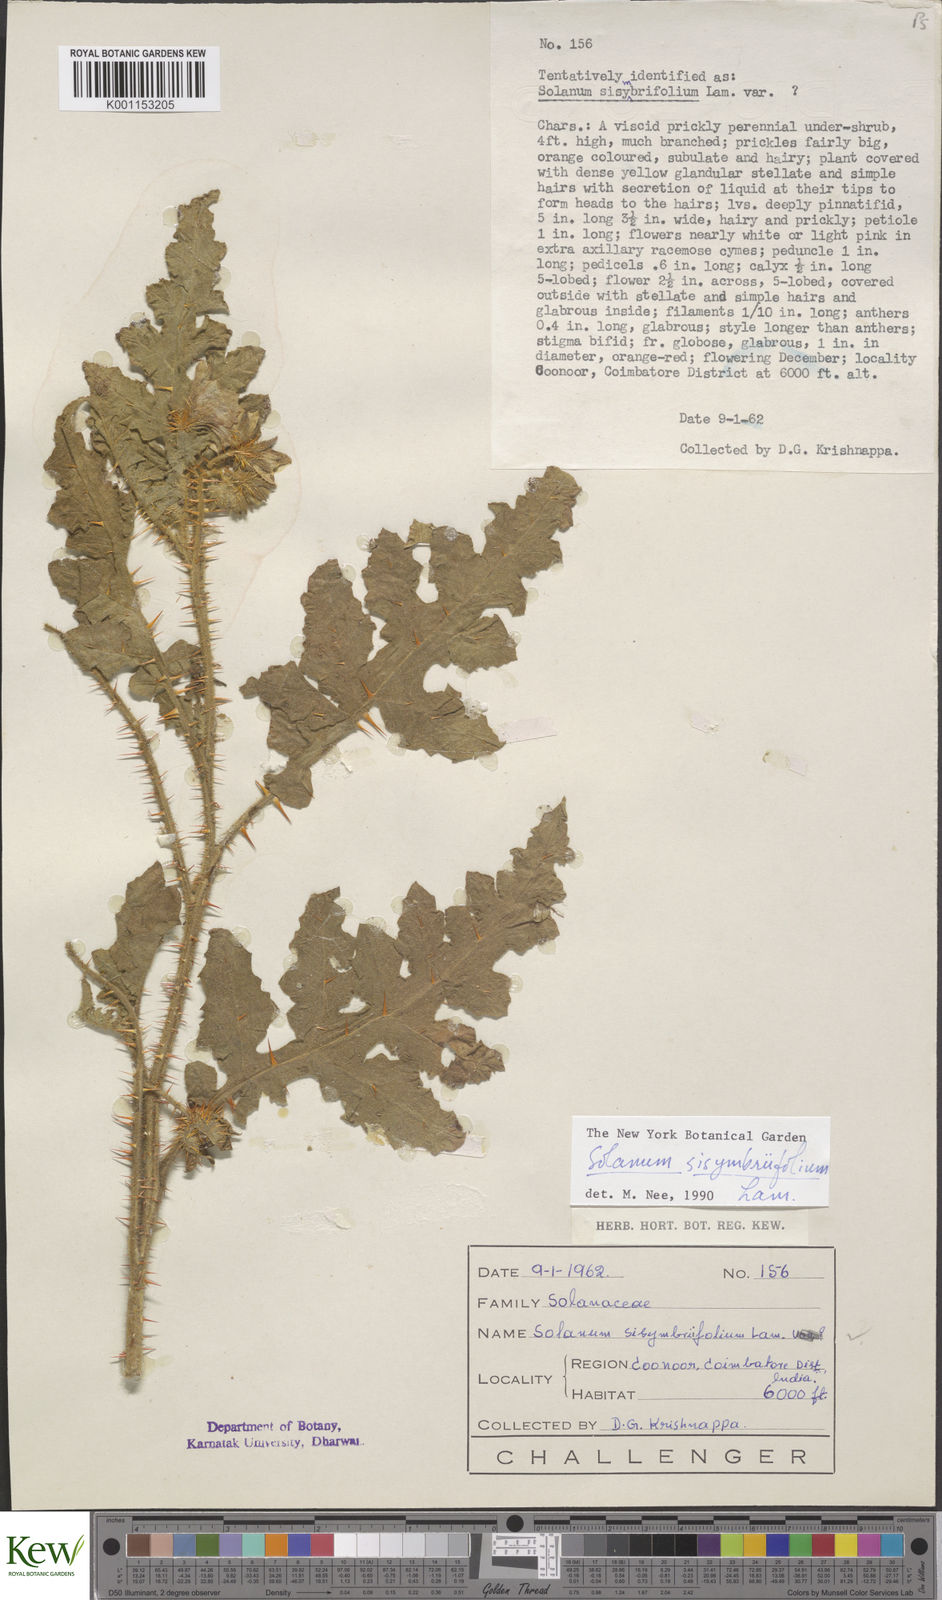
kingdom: Plantae
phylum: Tracheophyta
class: Magnoliopsida
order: Solanales
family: Solanaceae
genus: Solanum
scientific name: Solanum sisymbriifolium
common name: Red buffalo-bur
